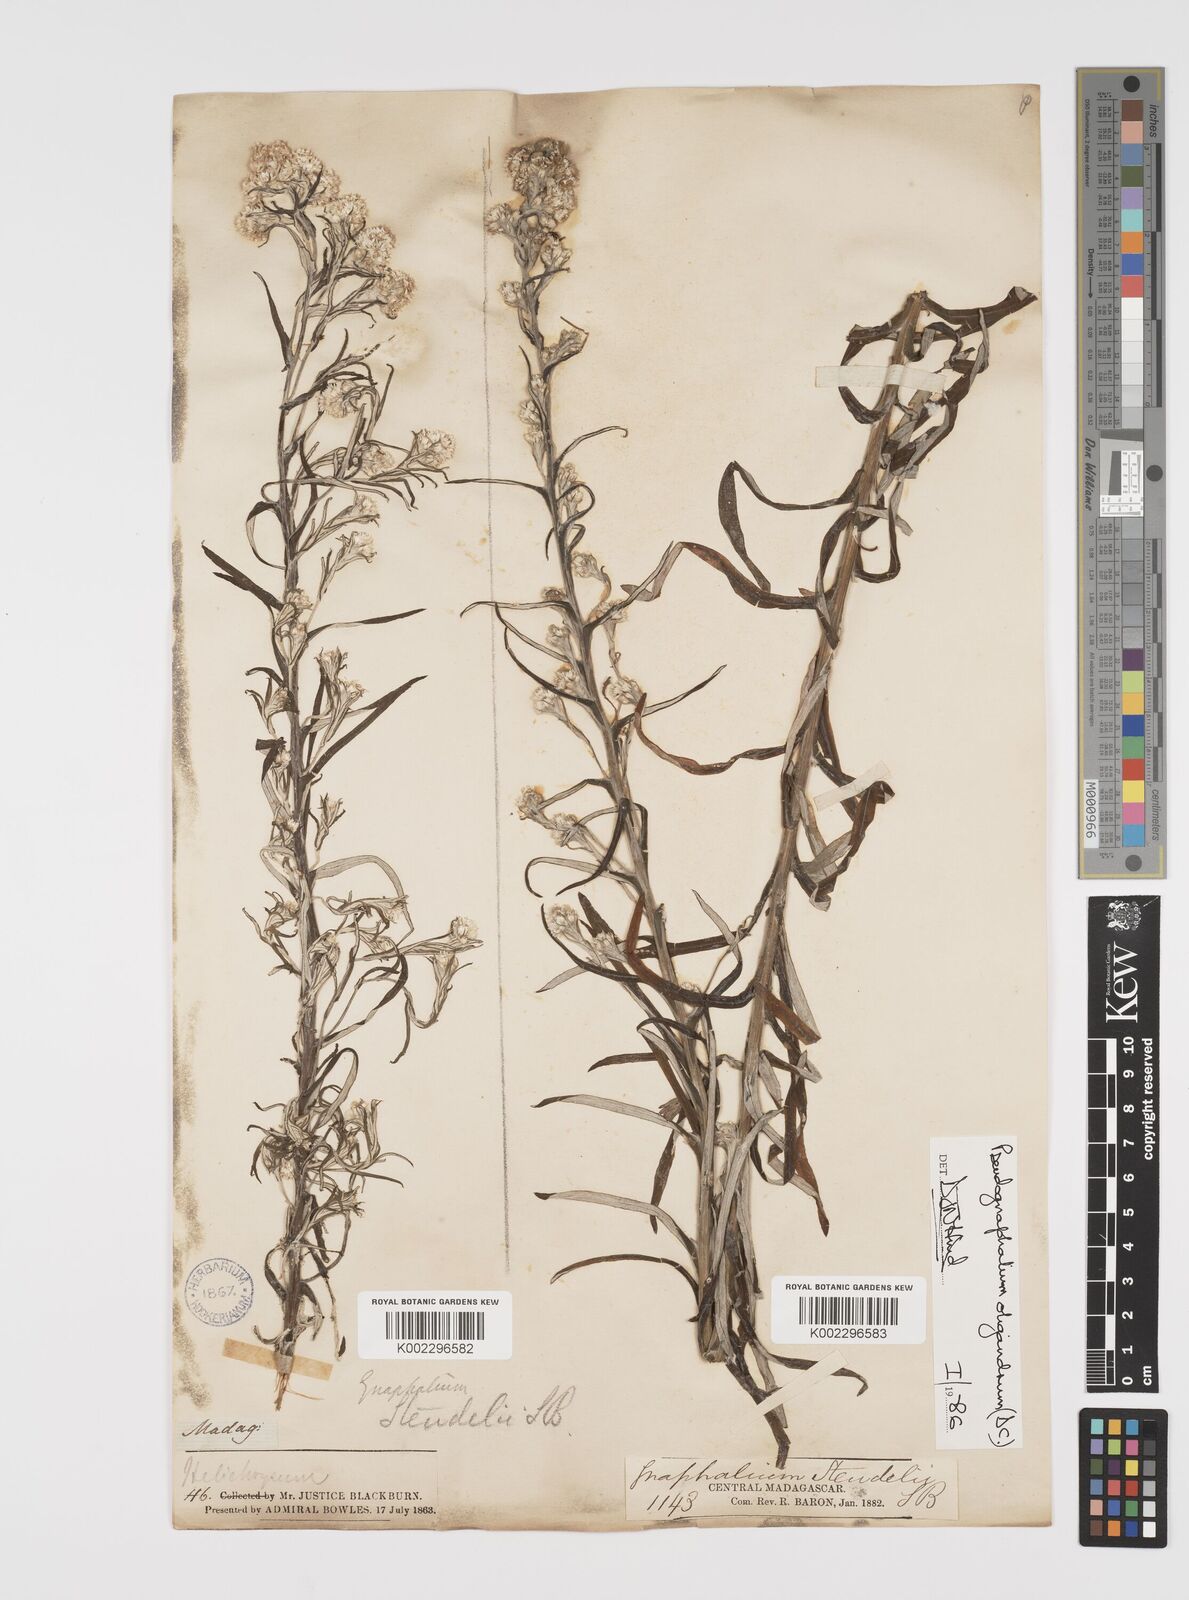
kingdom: Plantae
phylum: Tracheophyta
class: Magnoliopsida
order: Asterales
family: Asteraceae
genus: Pseudognaphalium
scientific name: Pseudognaphalium oligandrum
